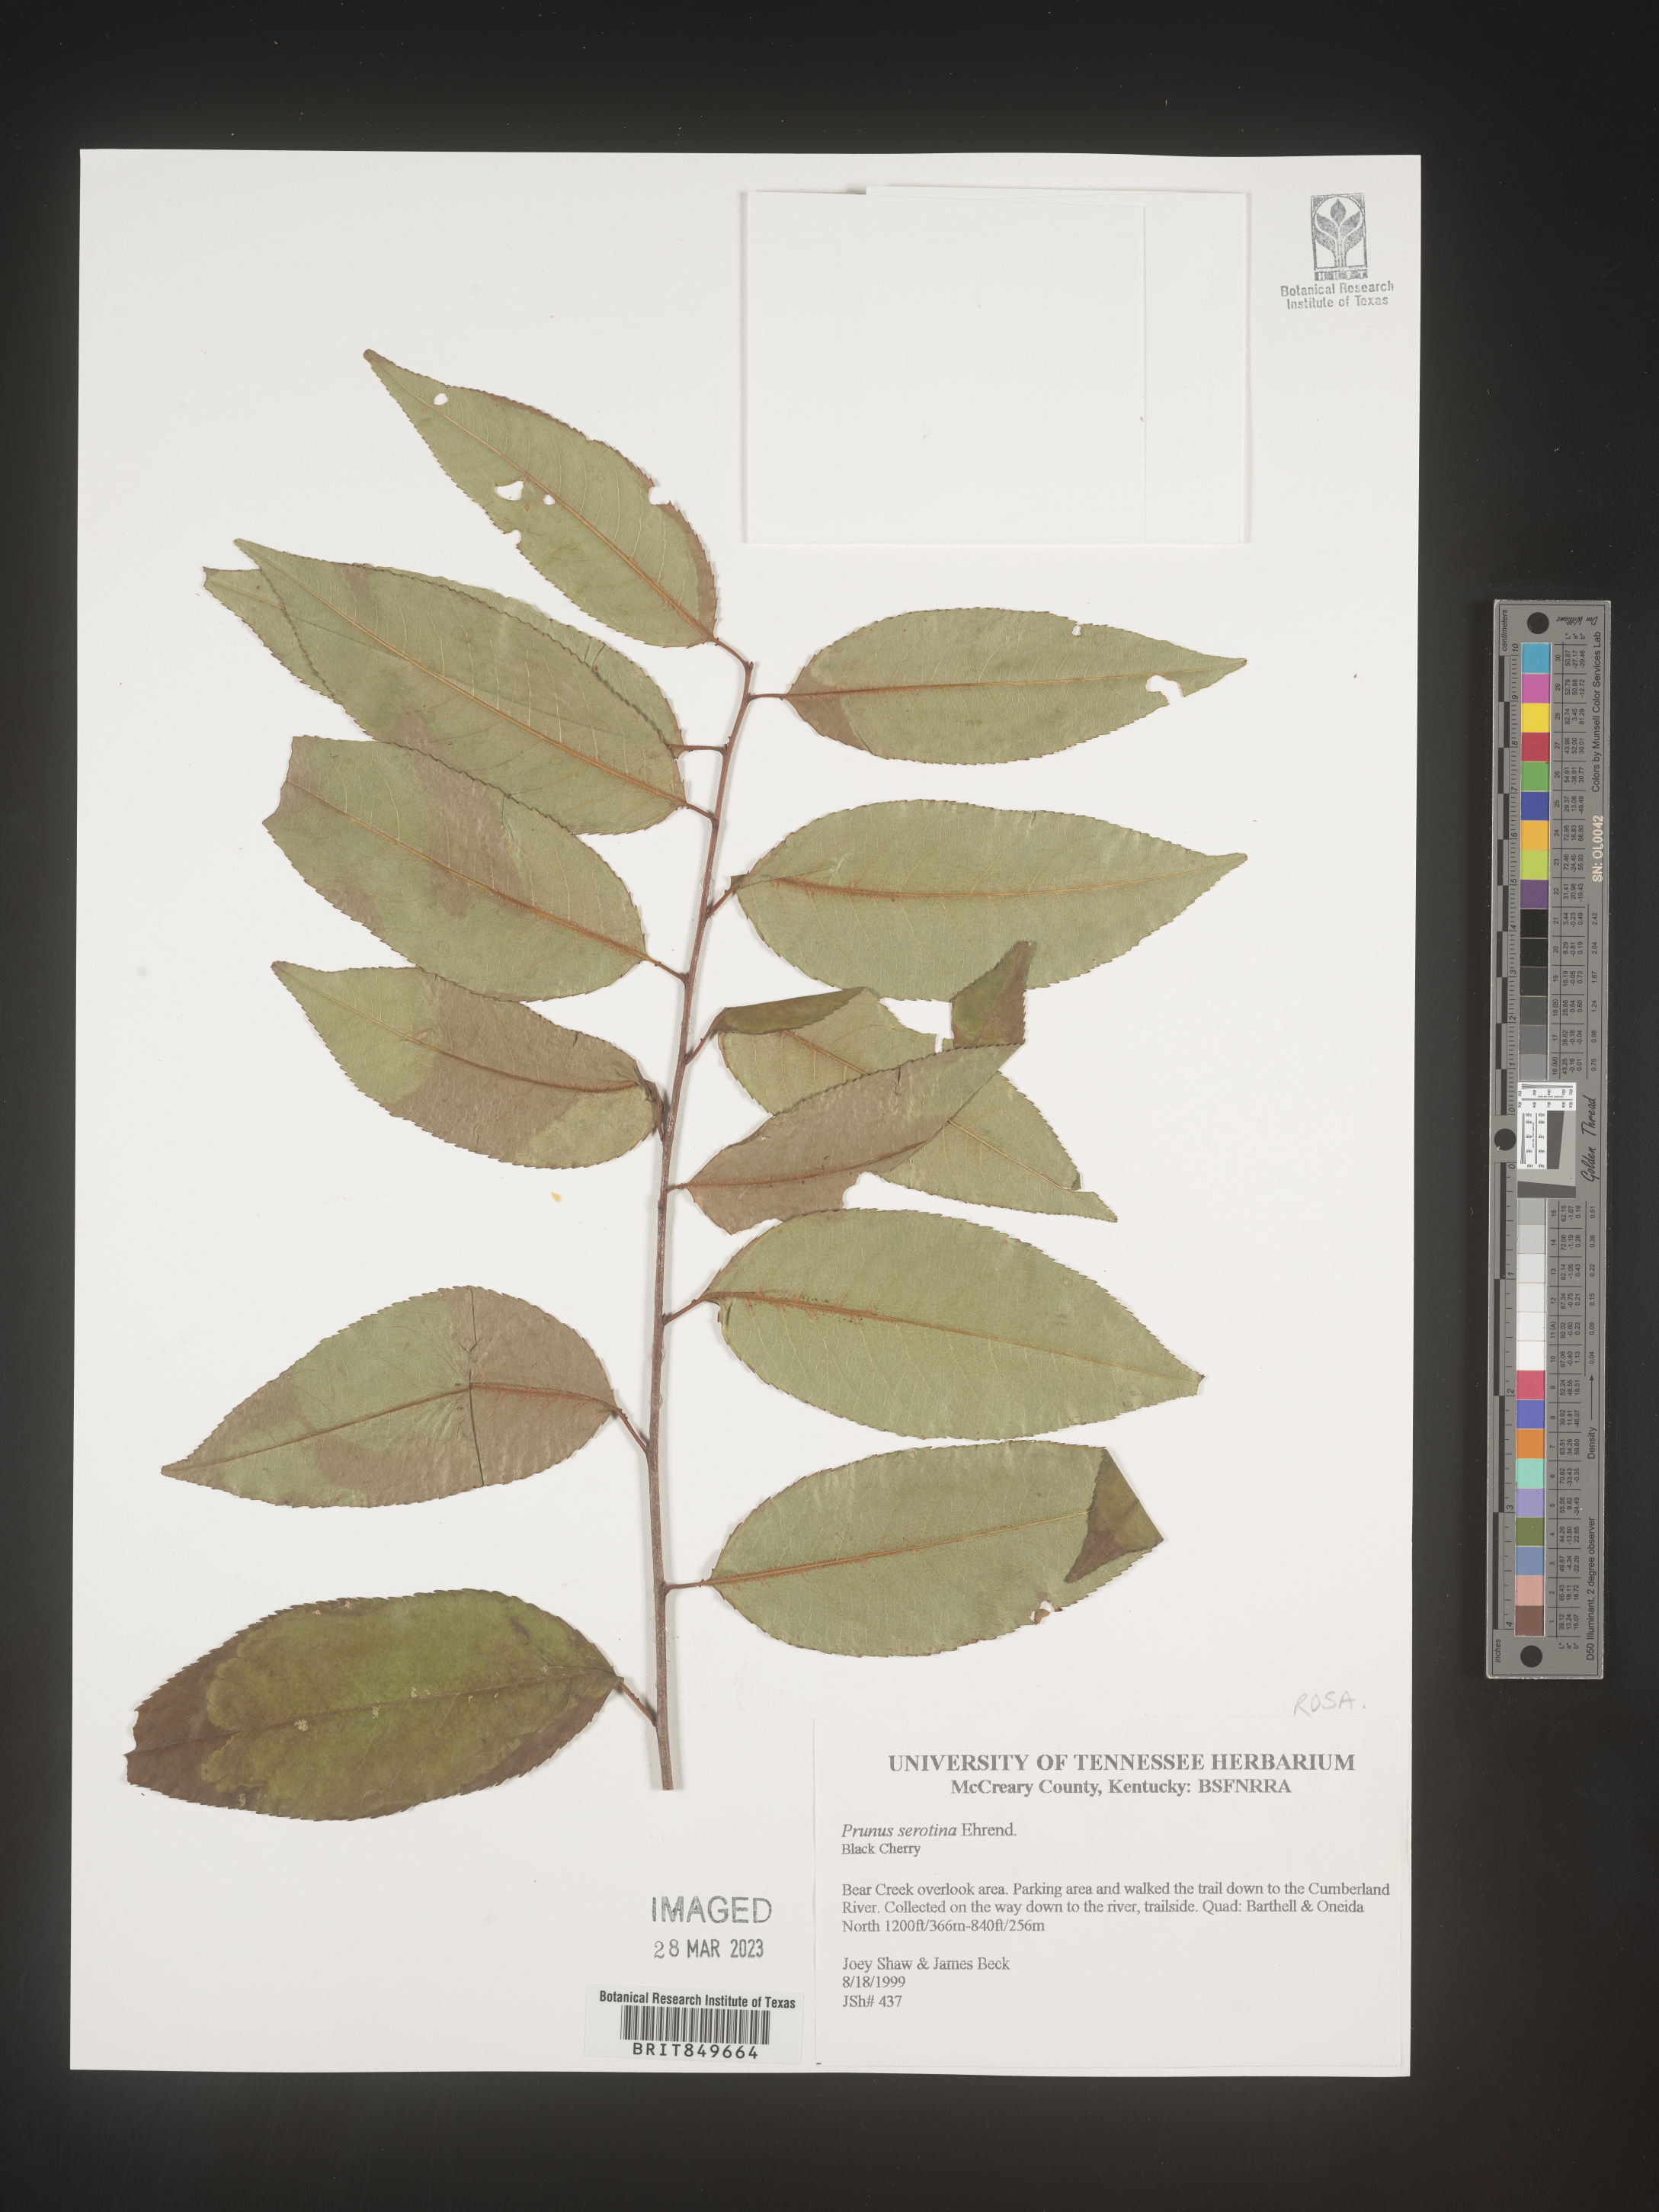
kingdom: Plantae
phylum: Tracheophyta
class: Magnoliopsida
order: Rosales
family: Rosaceae
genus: Prunus
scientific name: Prunus serotina
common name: Black cherry
